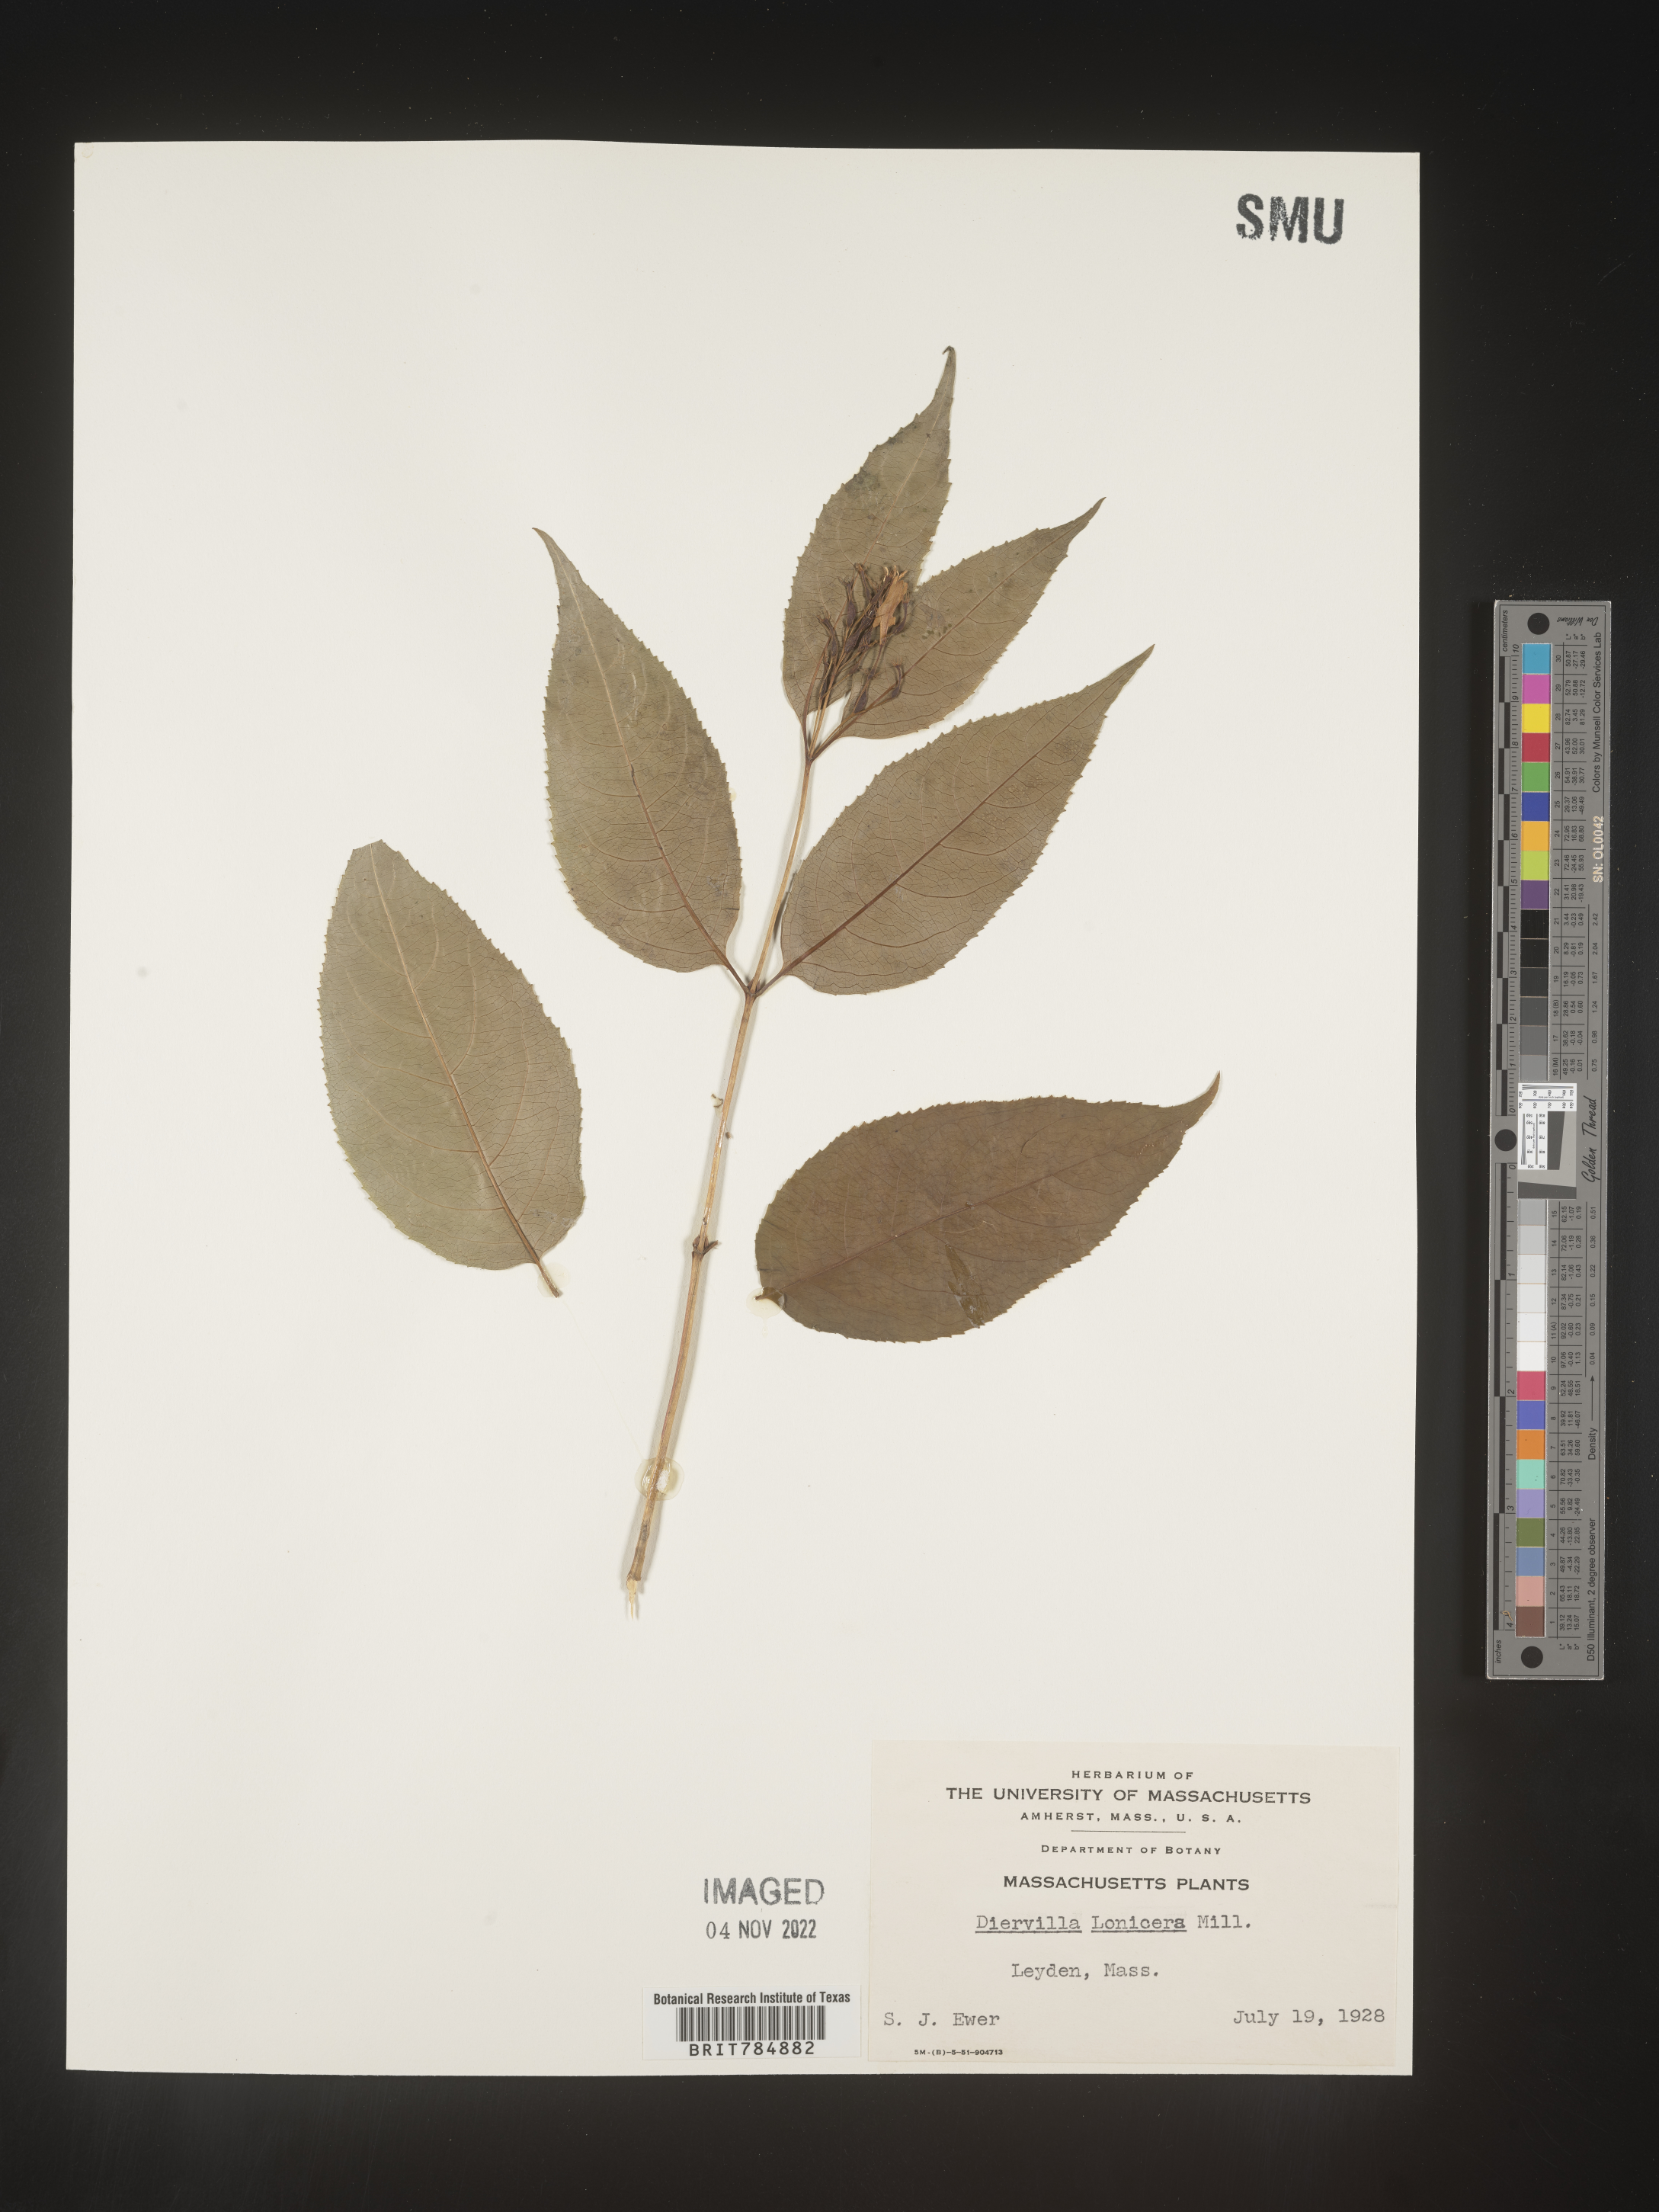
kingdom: Plantae
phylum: Tracheophyta
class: Magnoliopsida
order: Dipsacales
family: Caprifoliaceae
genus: Diervilla
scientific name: Diervilla lonicera
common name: Bush-honeysuckle
